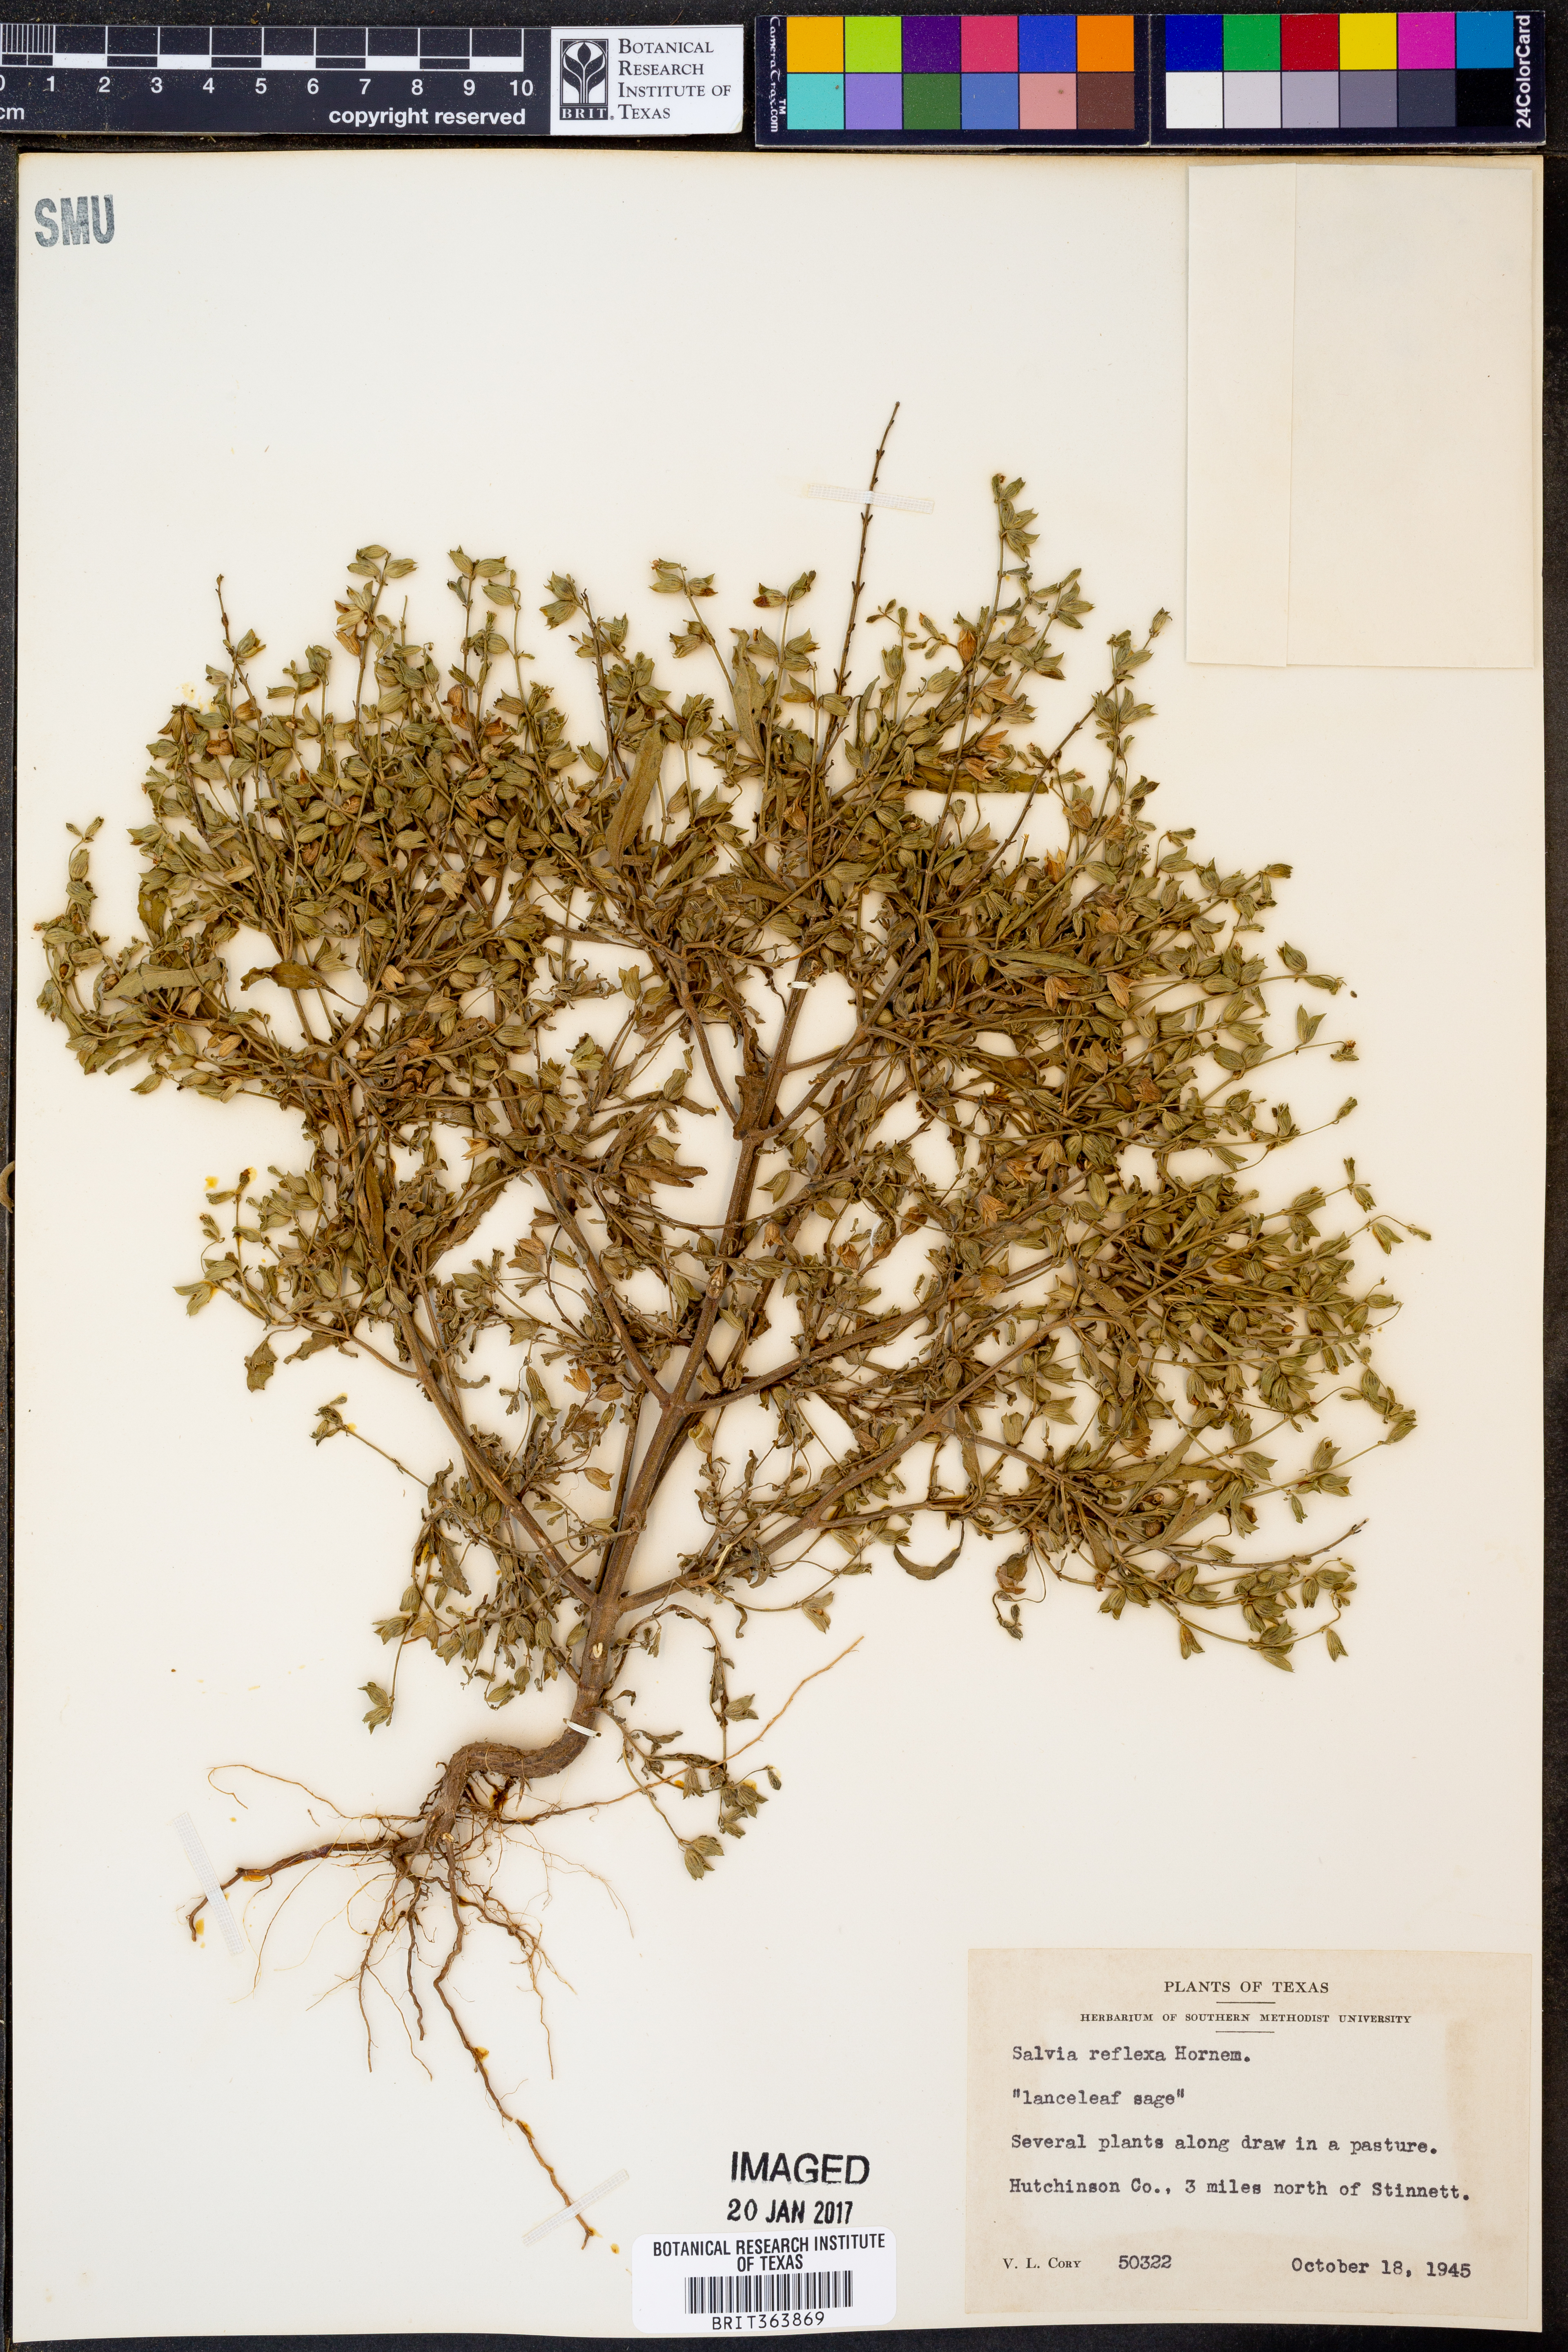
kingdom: Plantae
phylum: Tracheophyta
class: Magnoliopsida
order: Lamiales
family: Lamiaceae
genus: Salvia
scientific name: Salvia reflexa
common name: Mintweed
